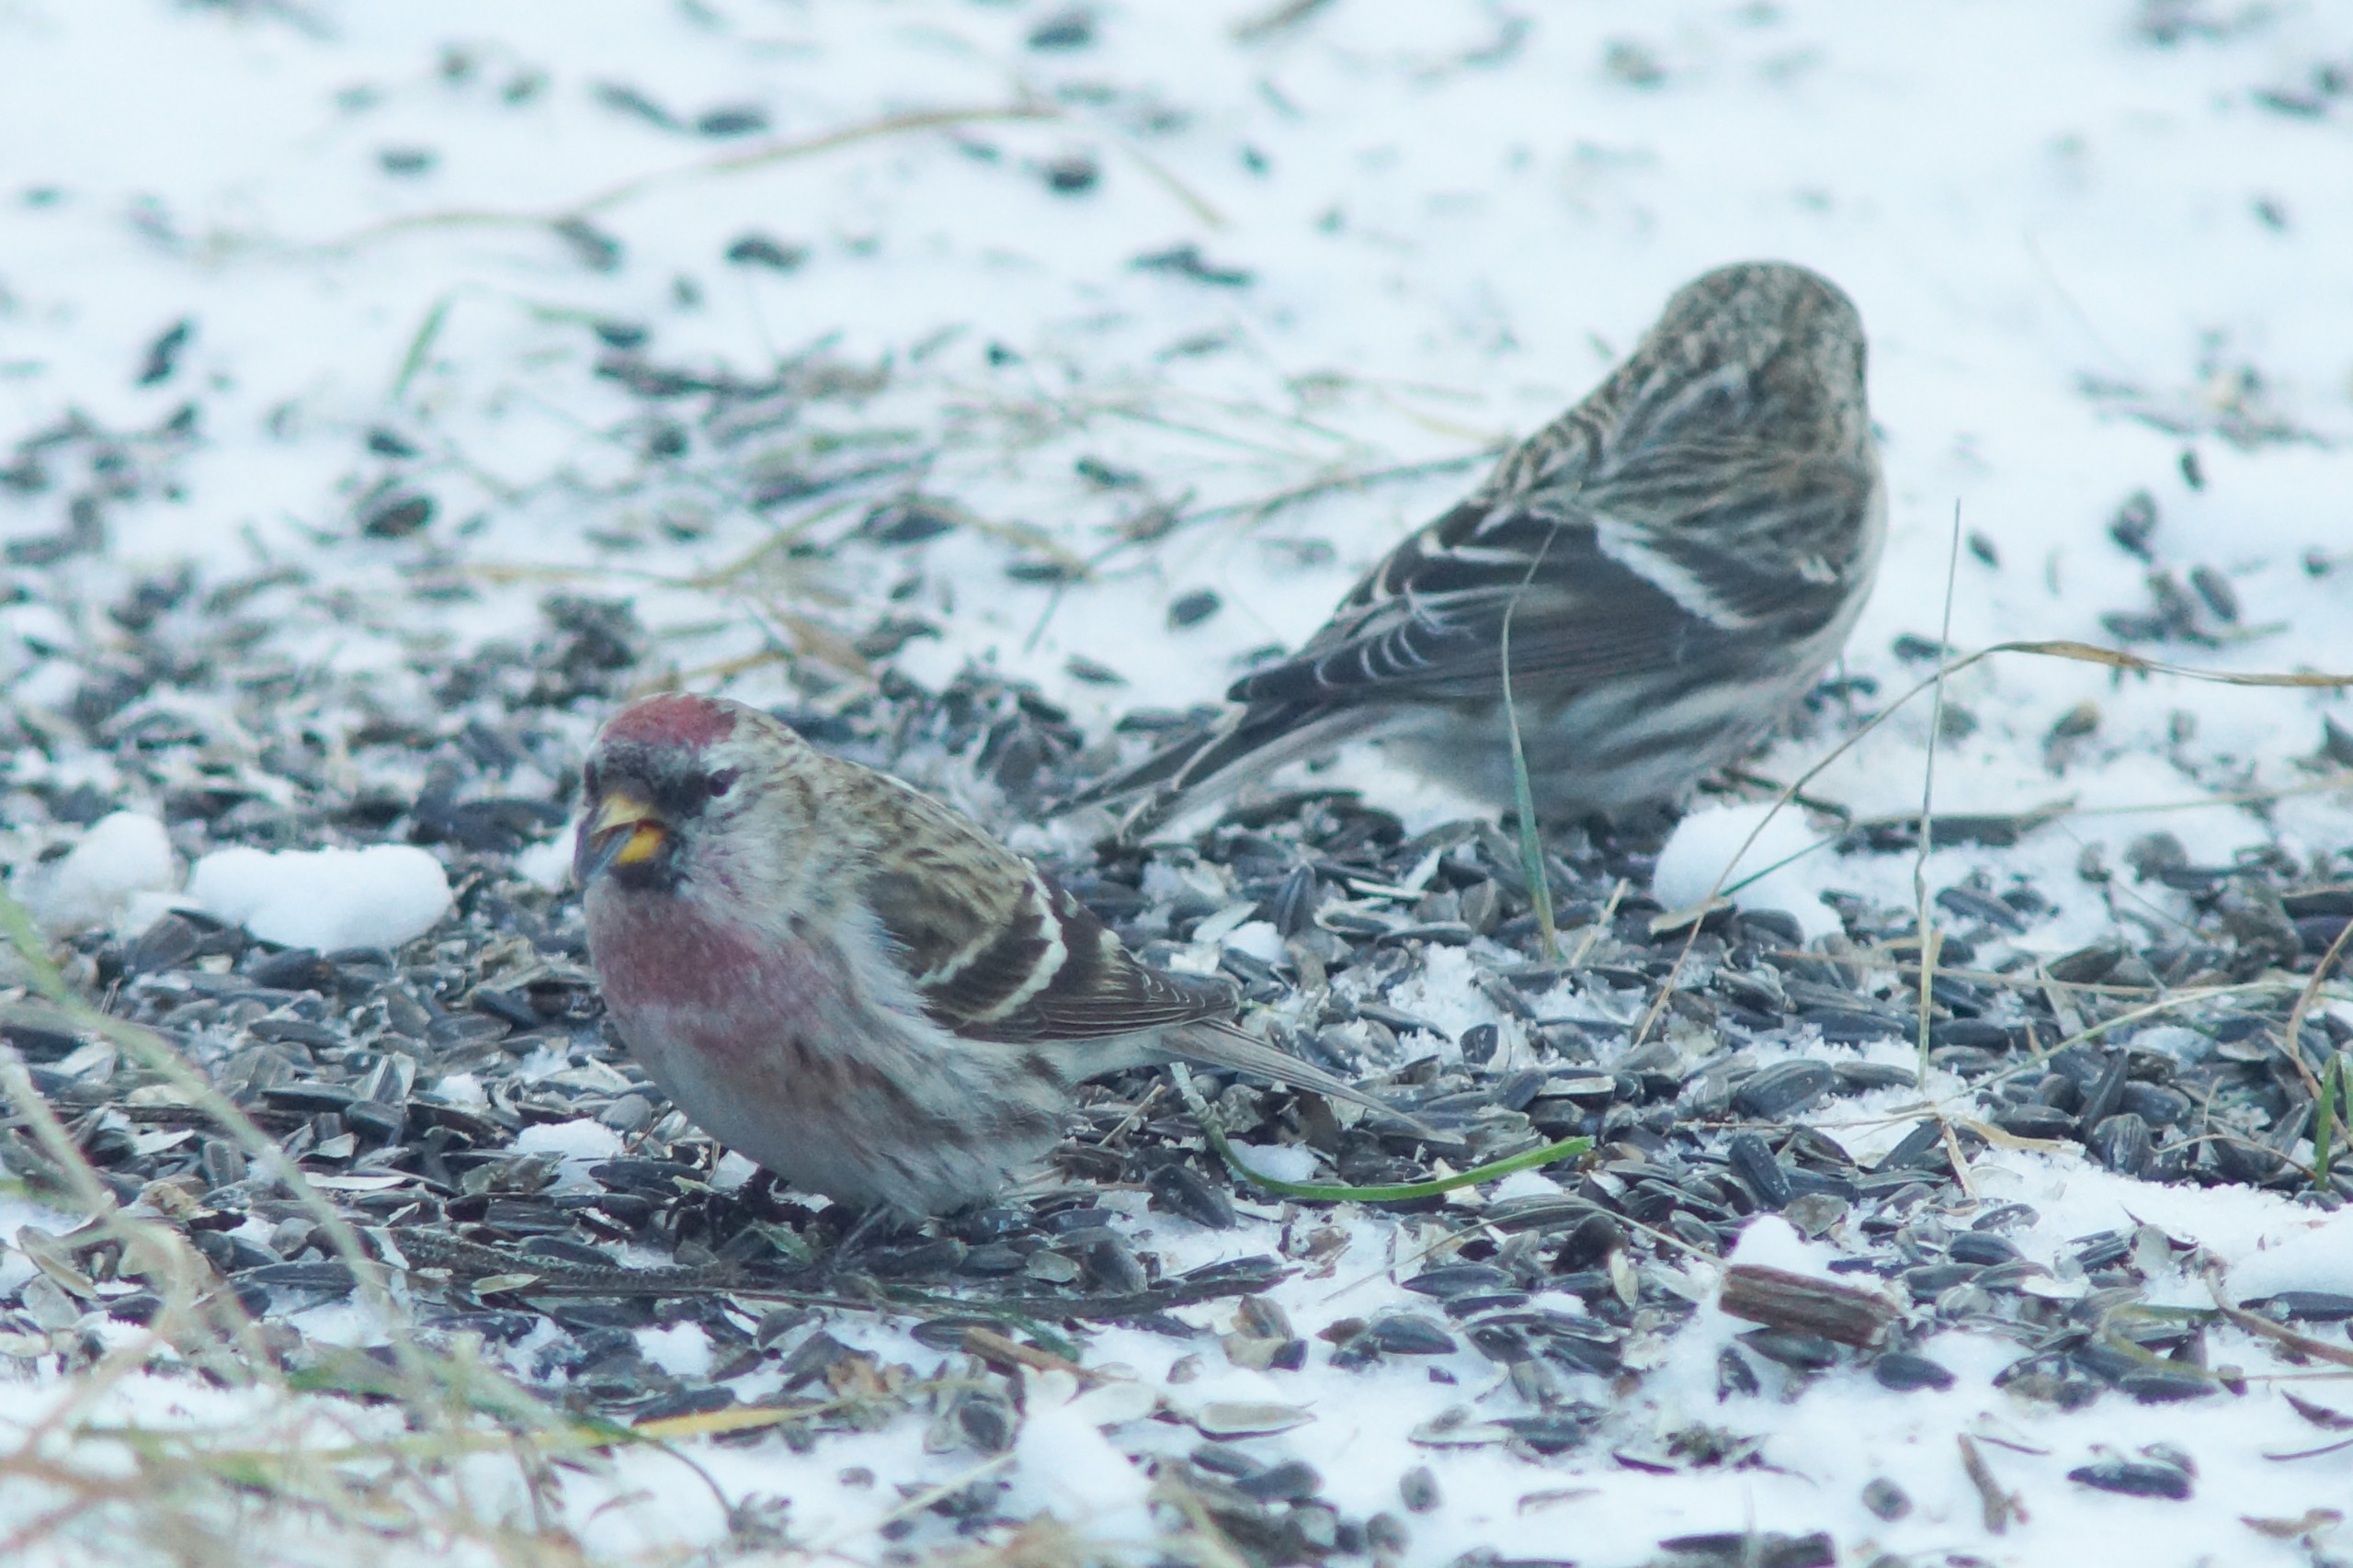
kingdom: Animalia
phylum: Chordata
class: Aves
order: Passeriformes
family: Fringillidae
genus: Acanthis
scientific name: Acanthis flammea
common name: Nordlig gråsisken
